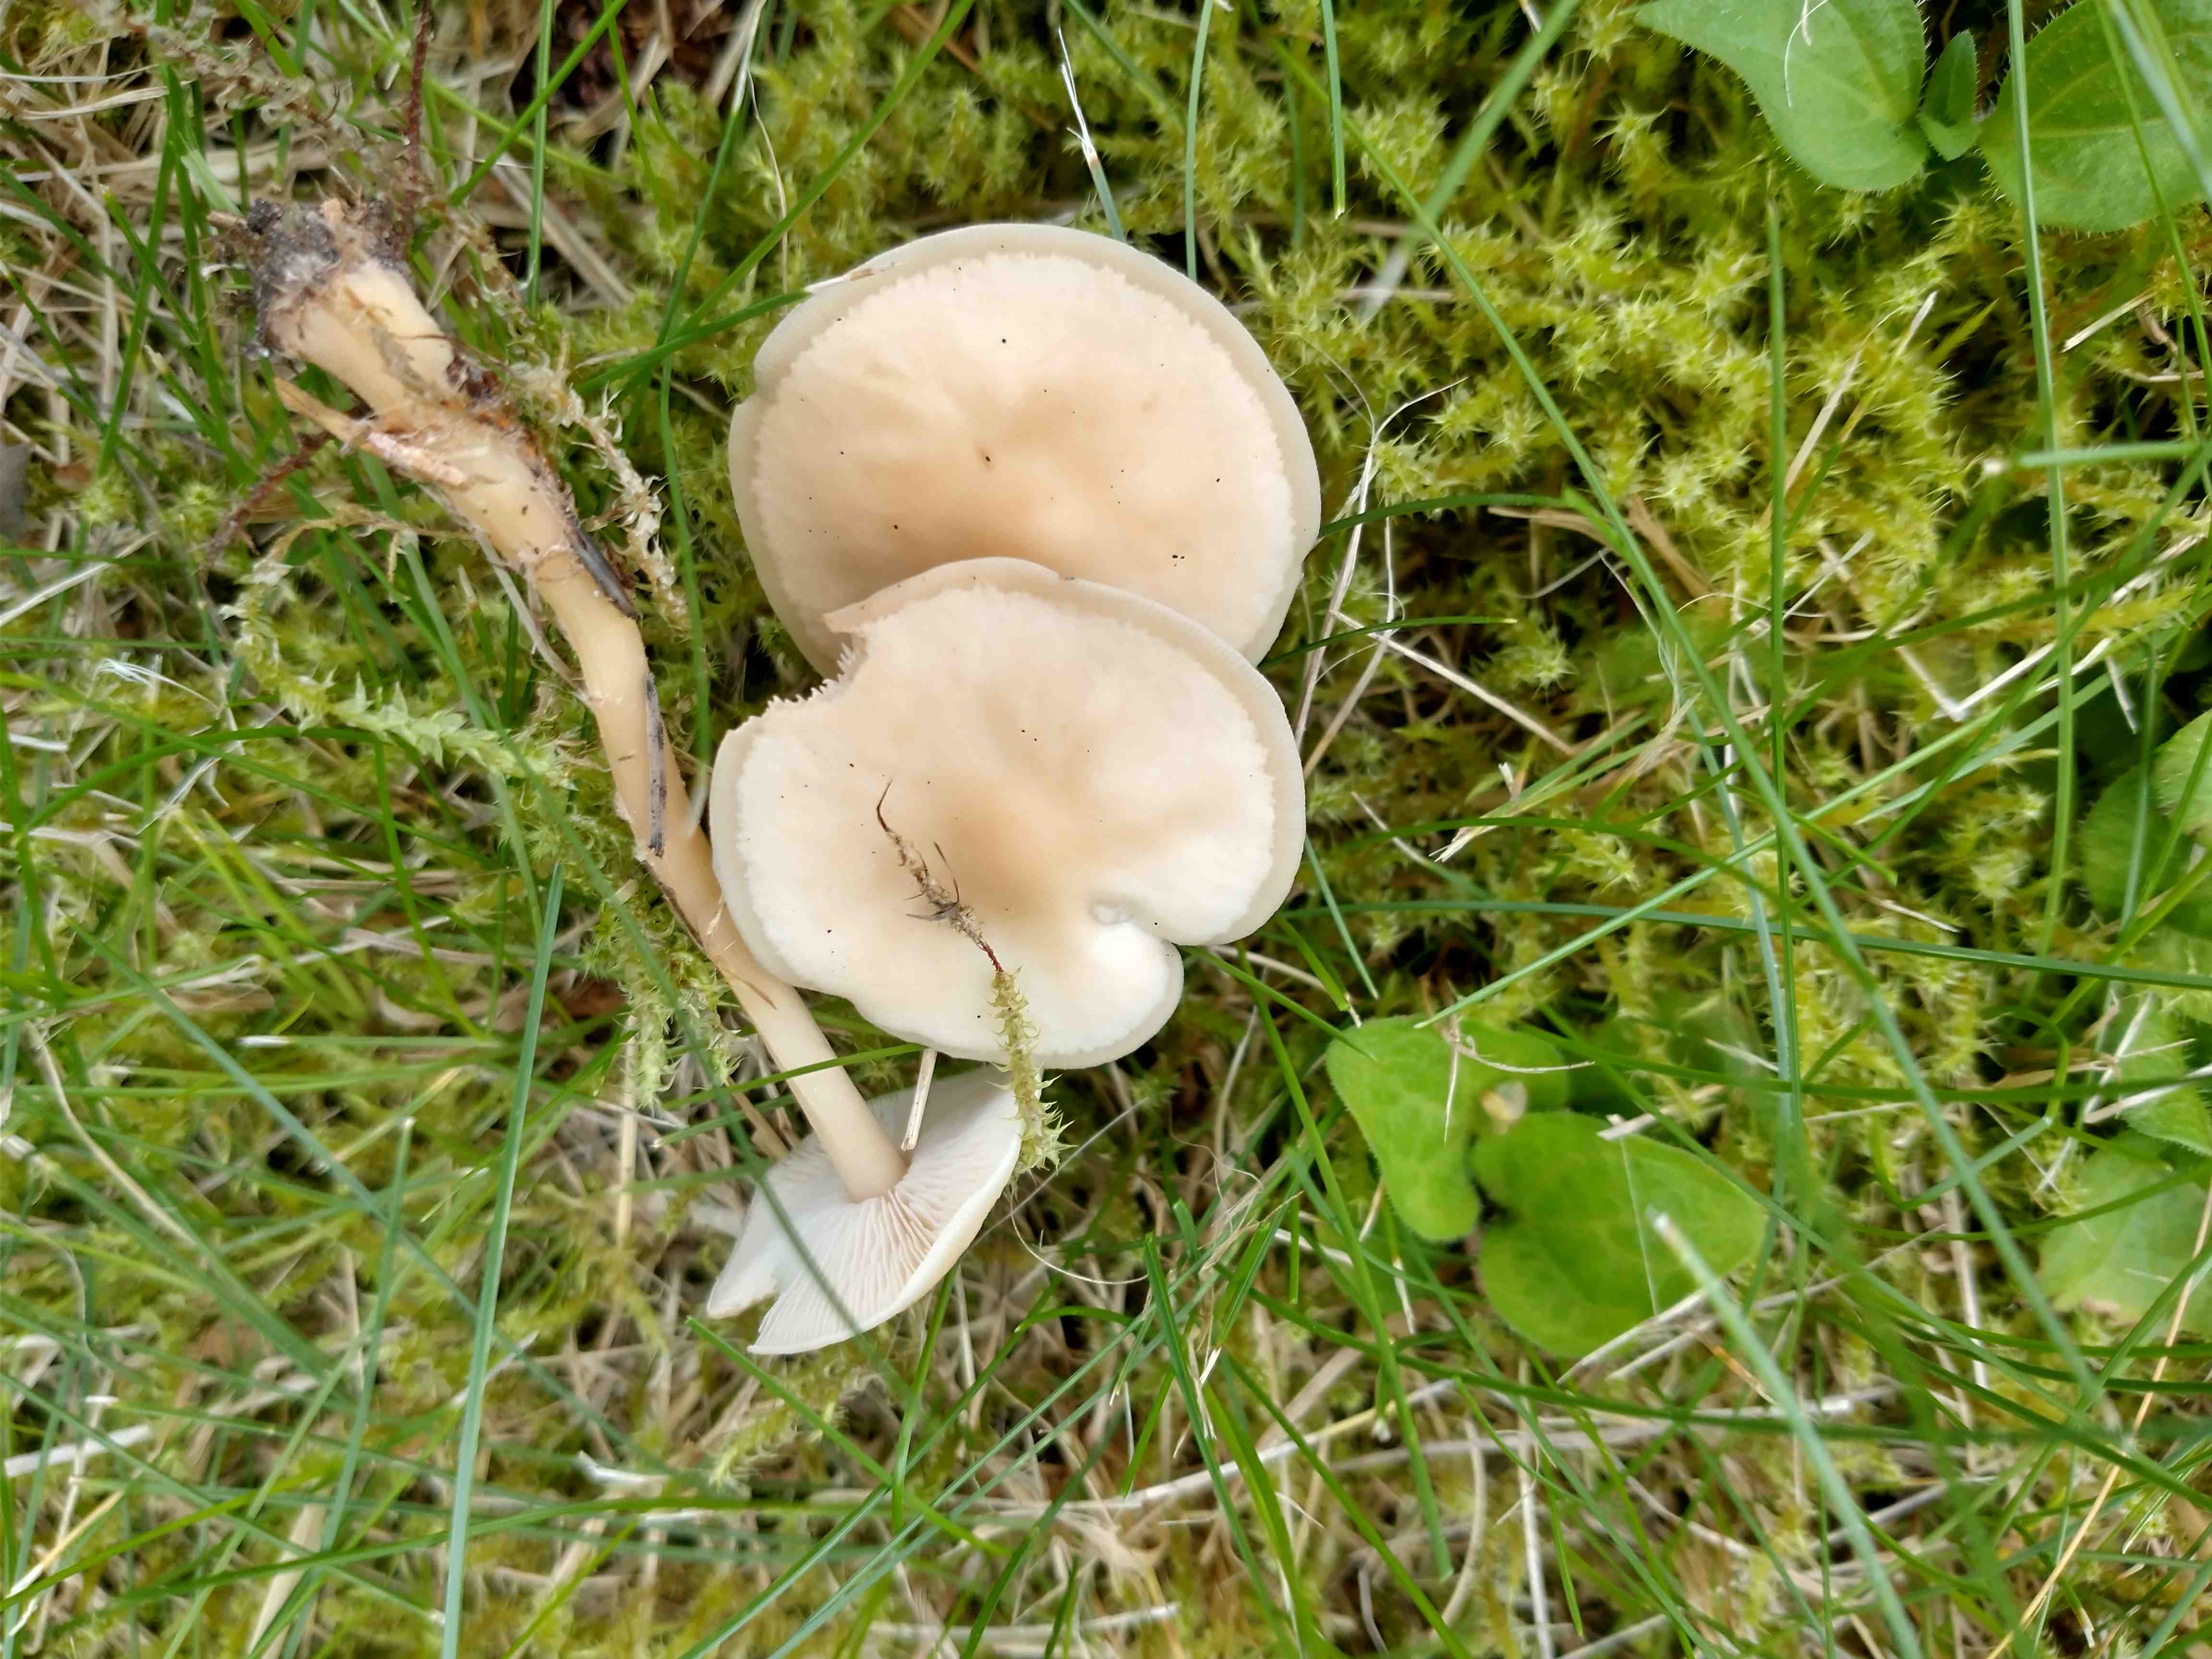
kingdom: Fungi
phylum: Basidiomycota
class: Agaricomycetes
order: Agaricales
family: Omphalotaceae
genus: Gymnopus
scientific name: Gymnopus aquosus
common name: bleg fladhat
